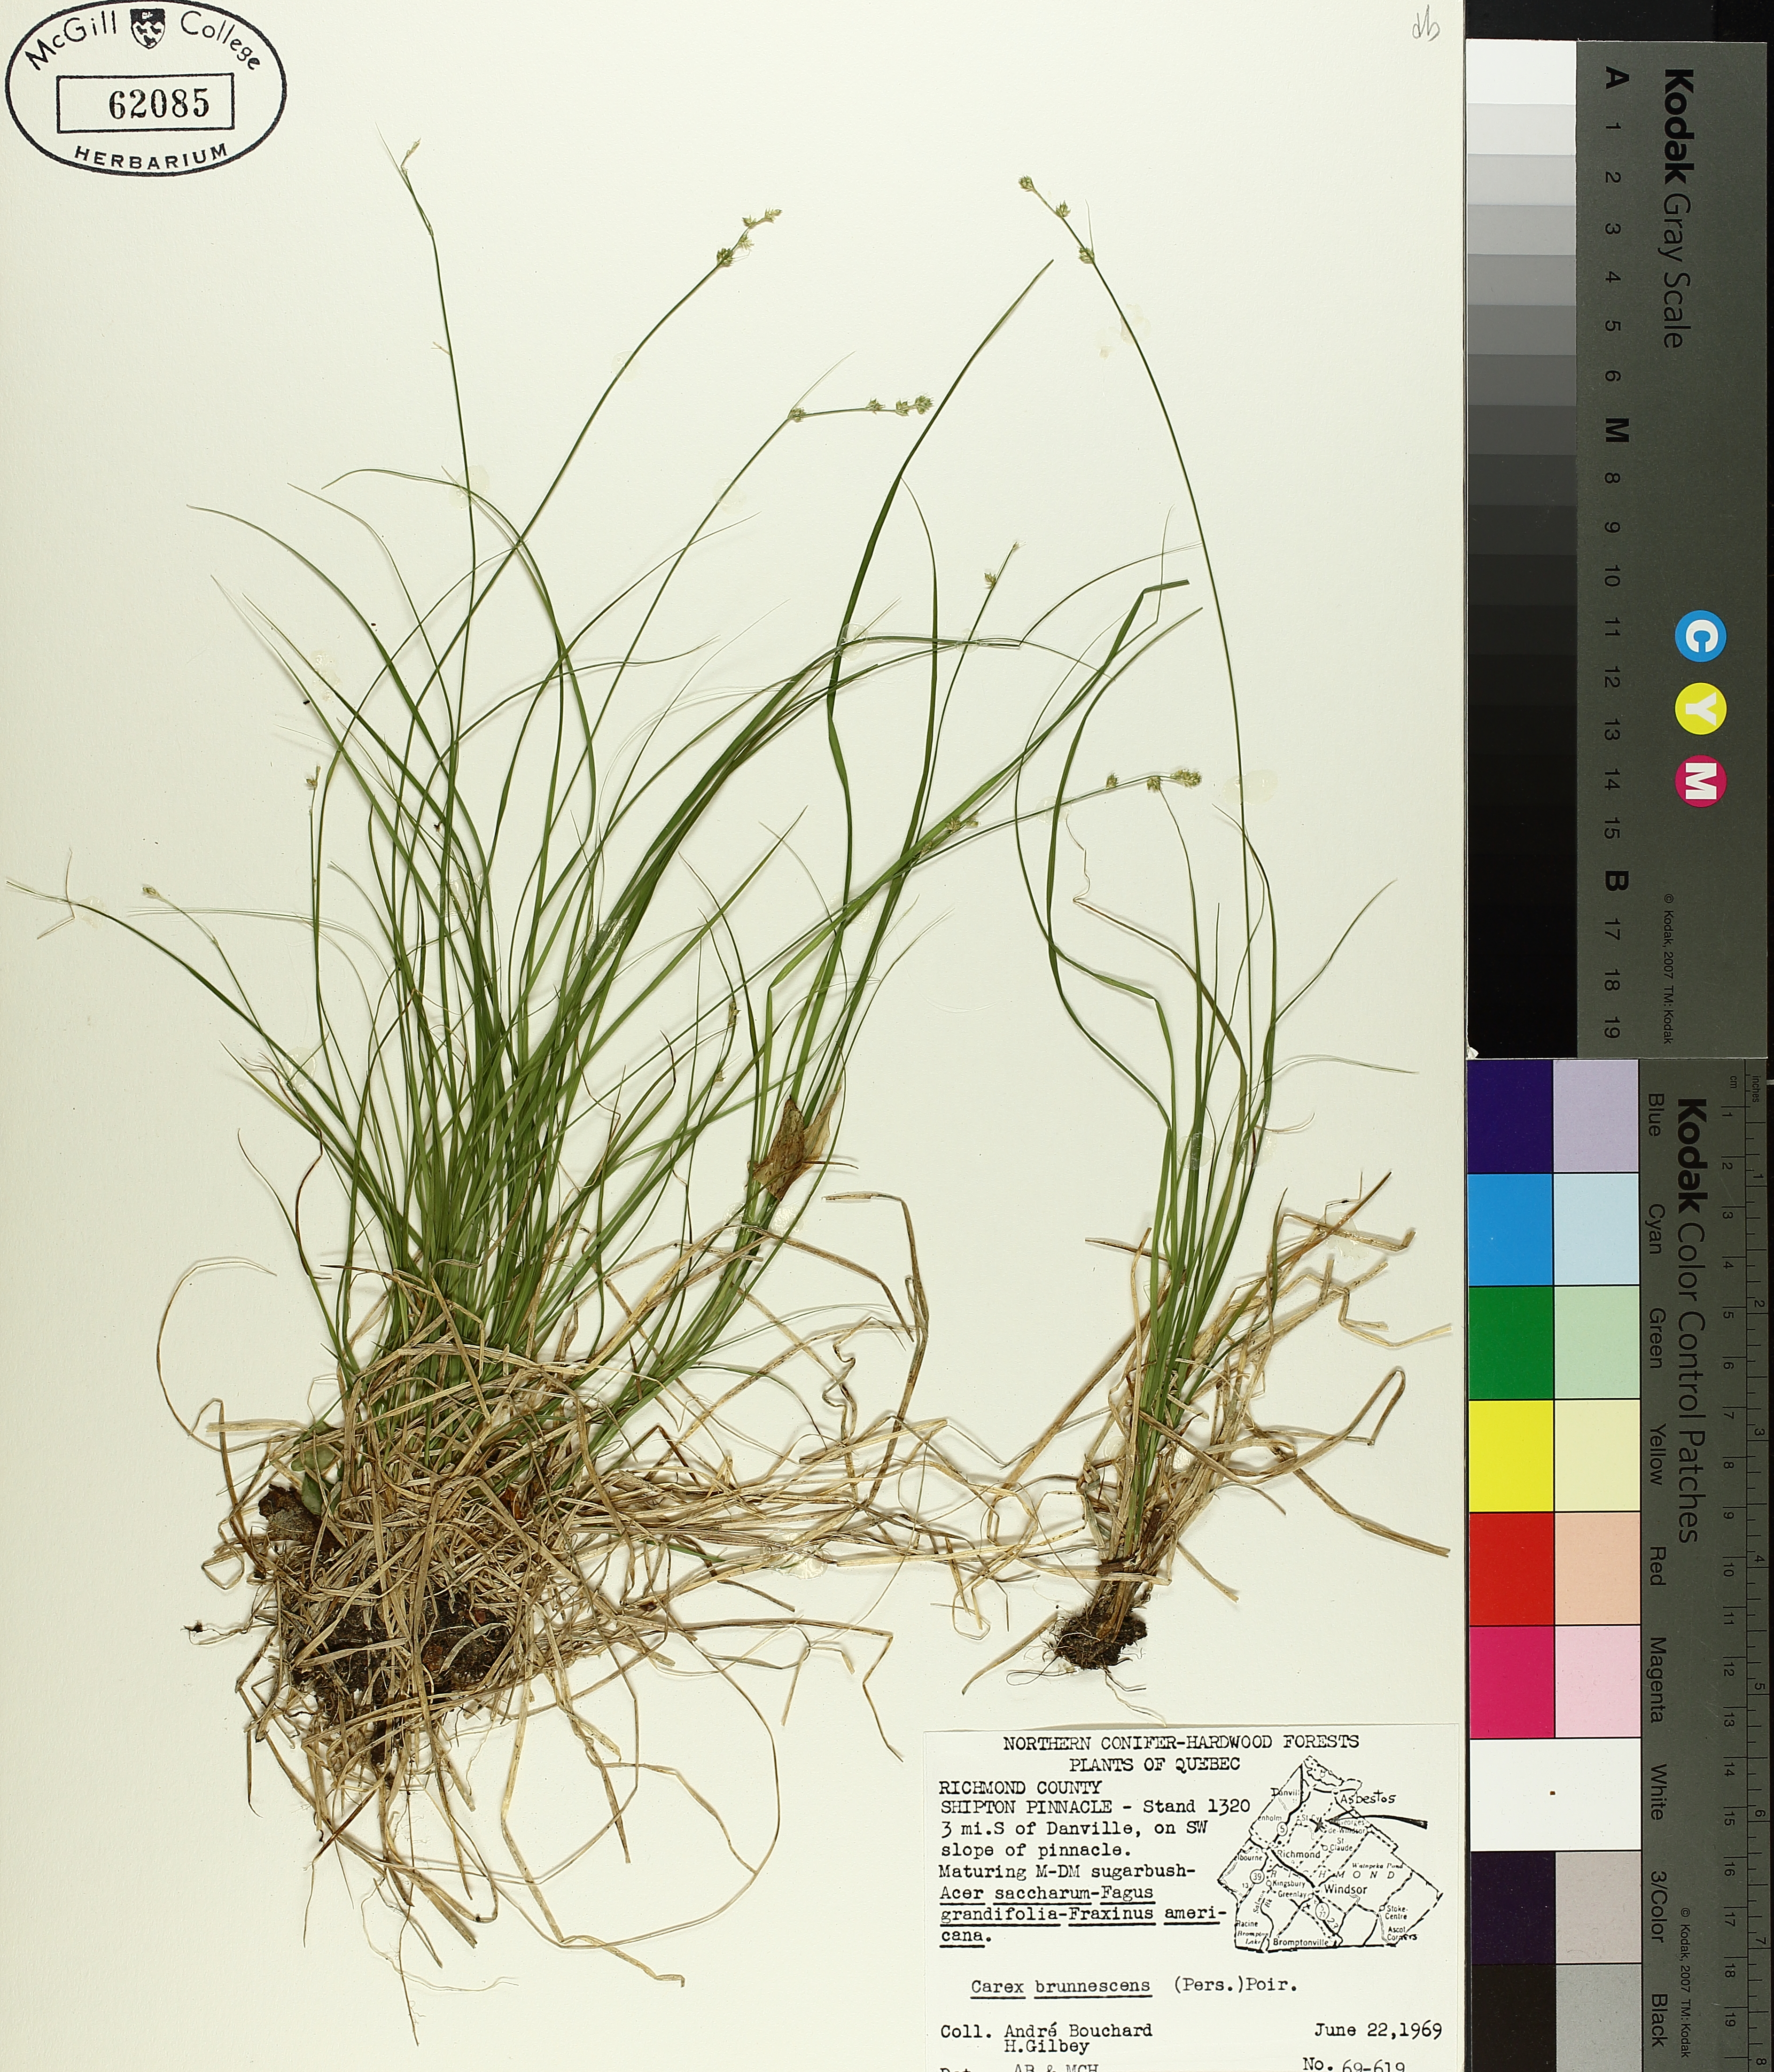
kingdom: Plantae
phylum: Tracheophyta
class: Liliopsida
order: Poales
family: Cyperaceae
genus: Carex
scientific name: Carex brunnescens
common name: Brown sedge
